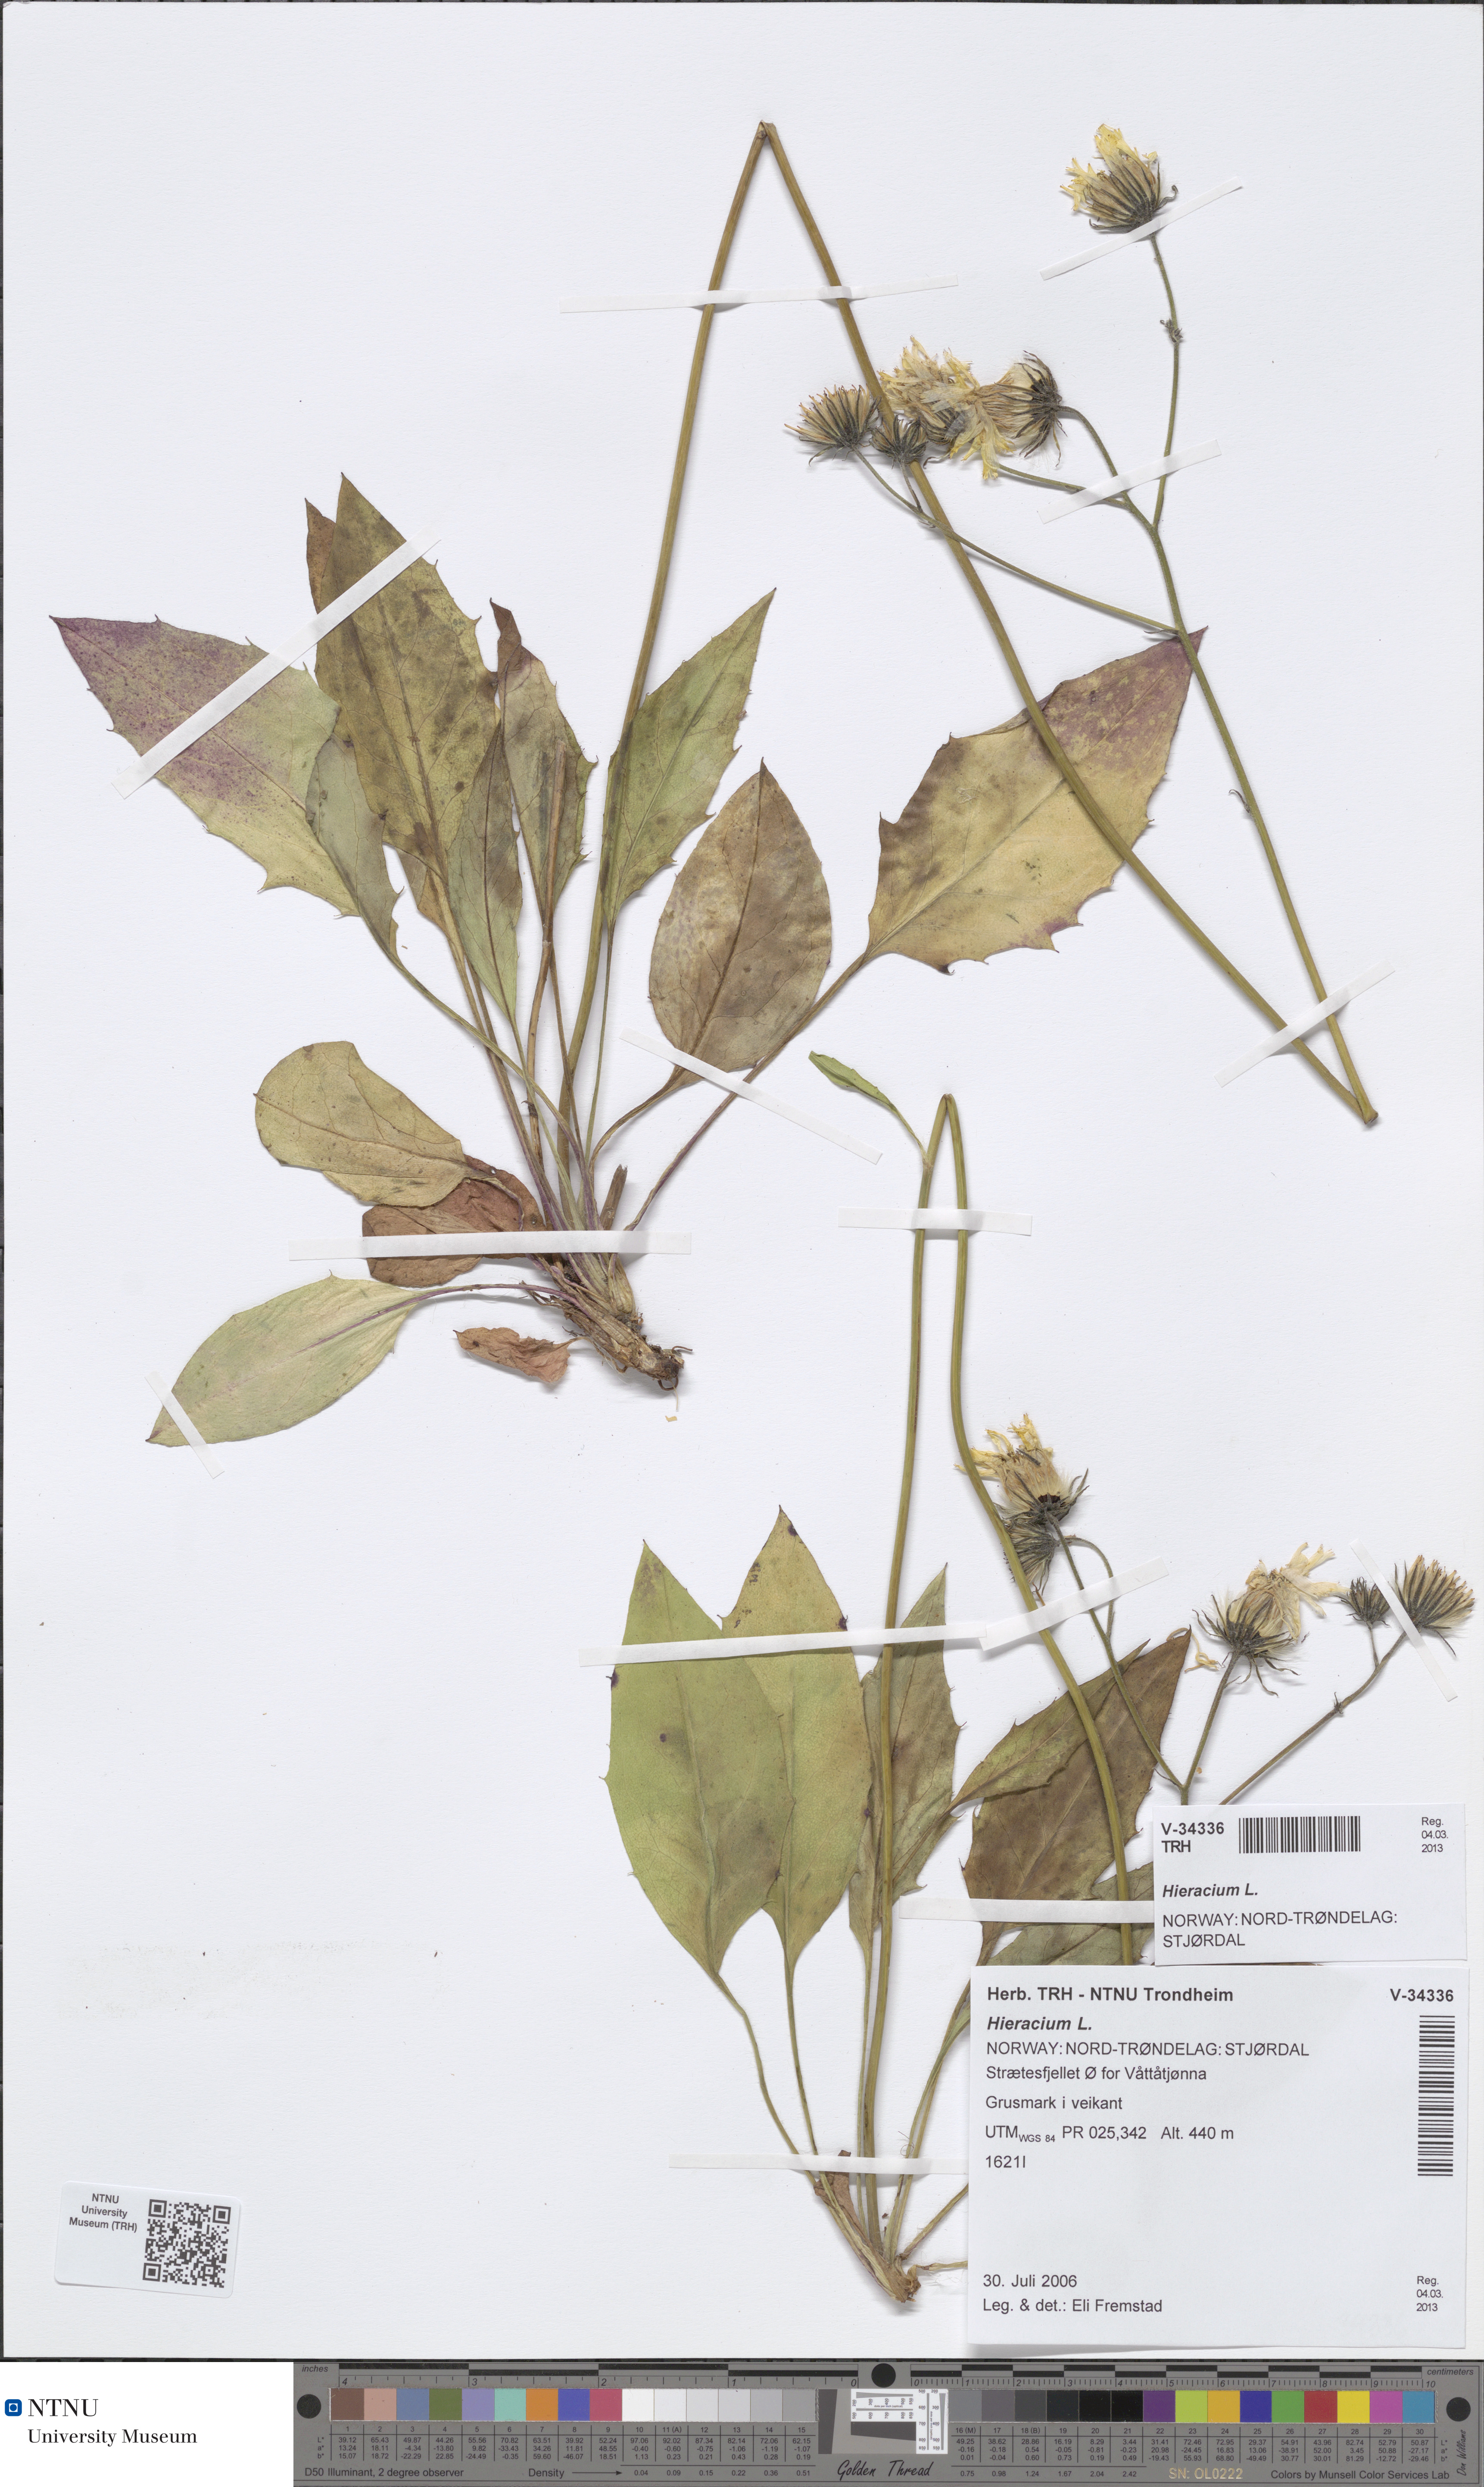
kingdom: Plantae
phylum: Tracheophyta
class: Magnoliopsida
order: Asterales
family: Asteraceae
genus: Hieracium
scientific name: Hieracium
